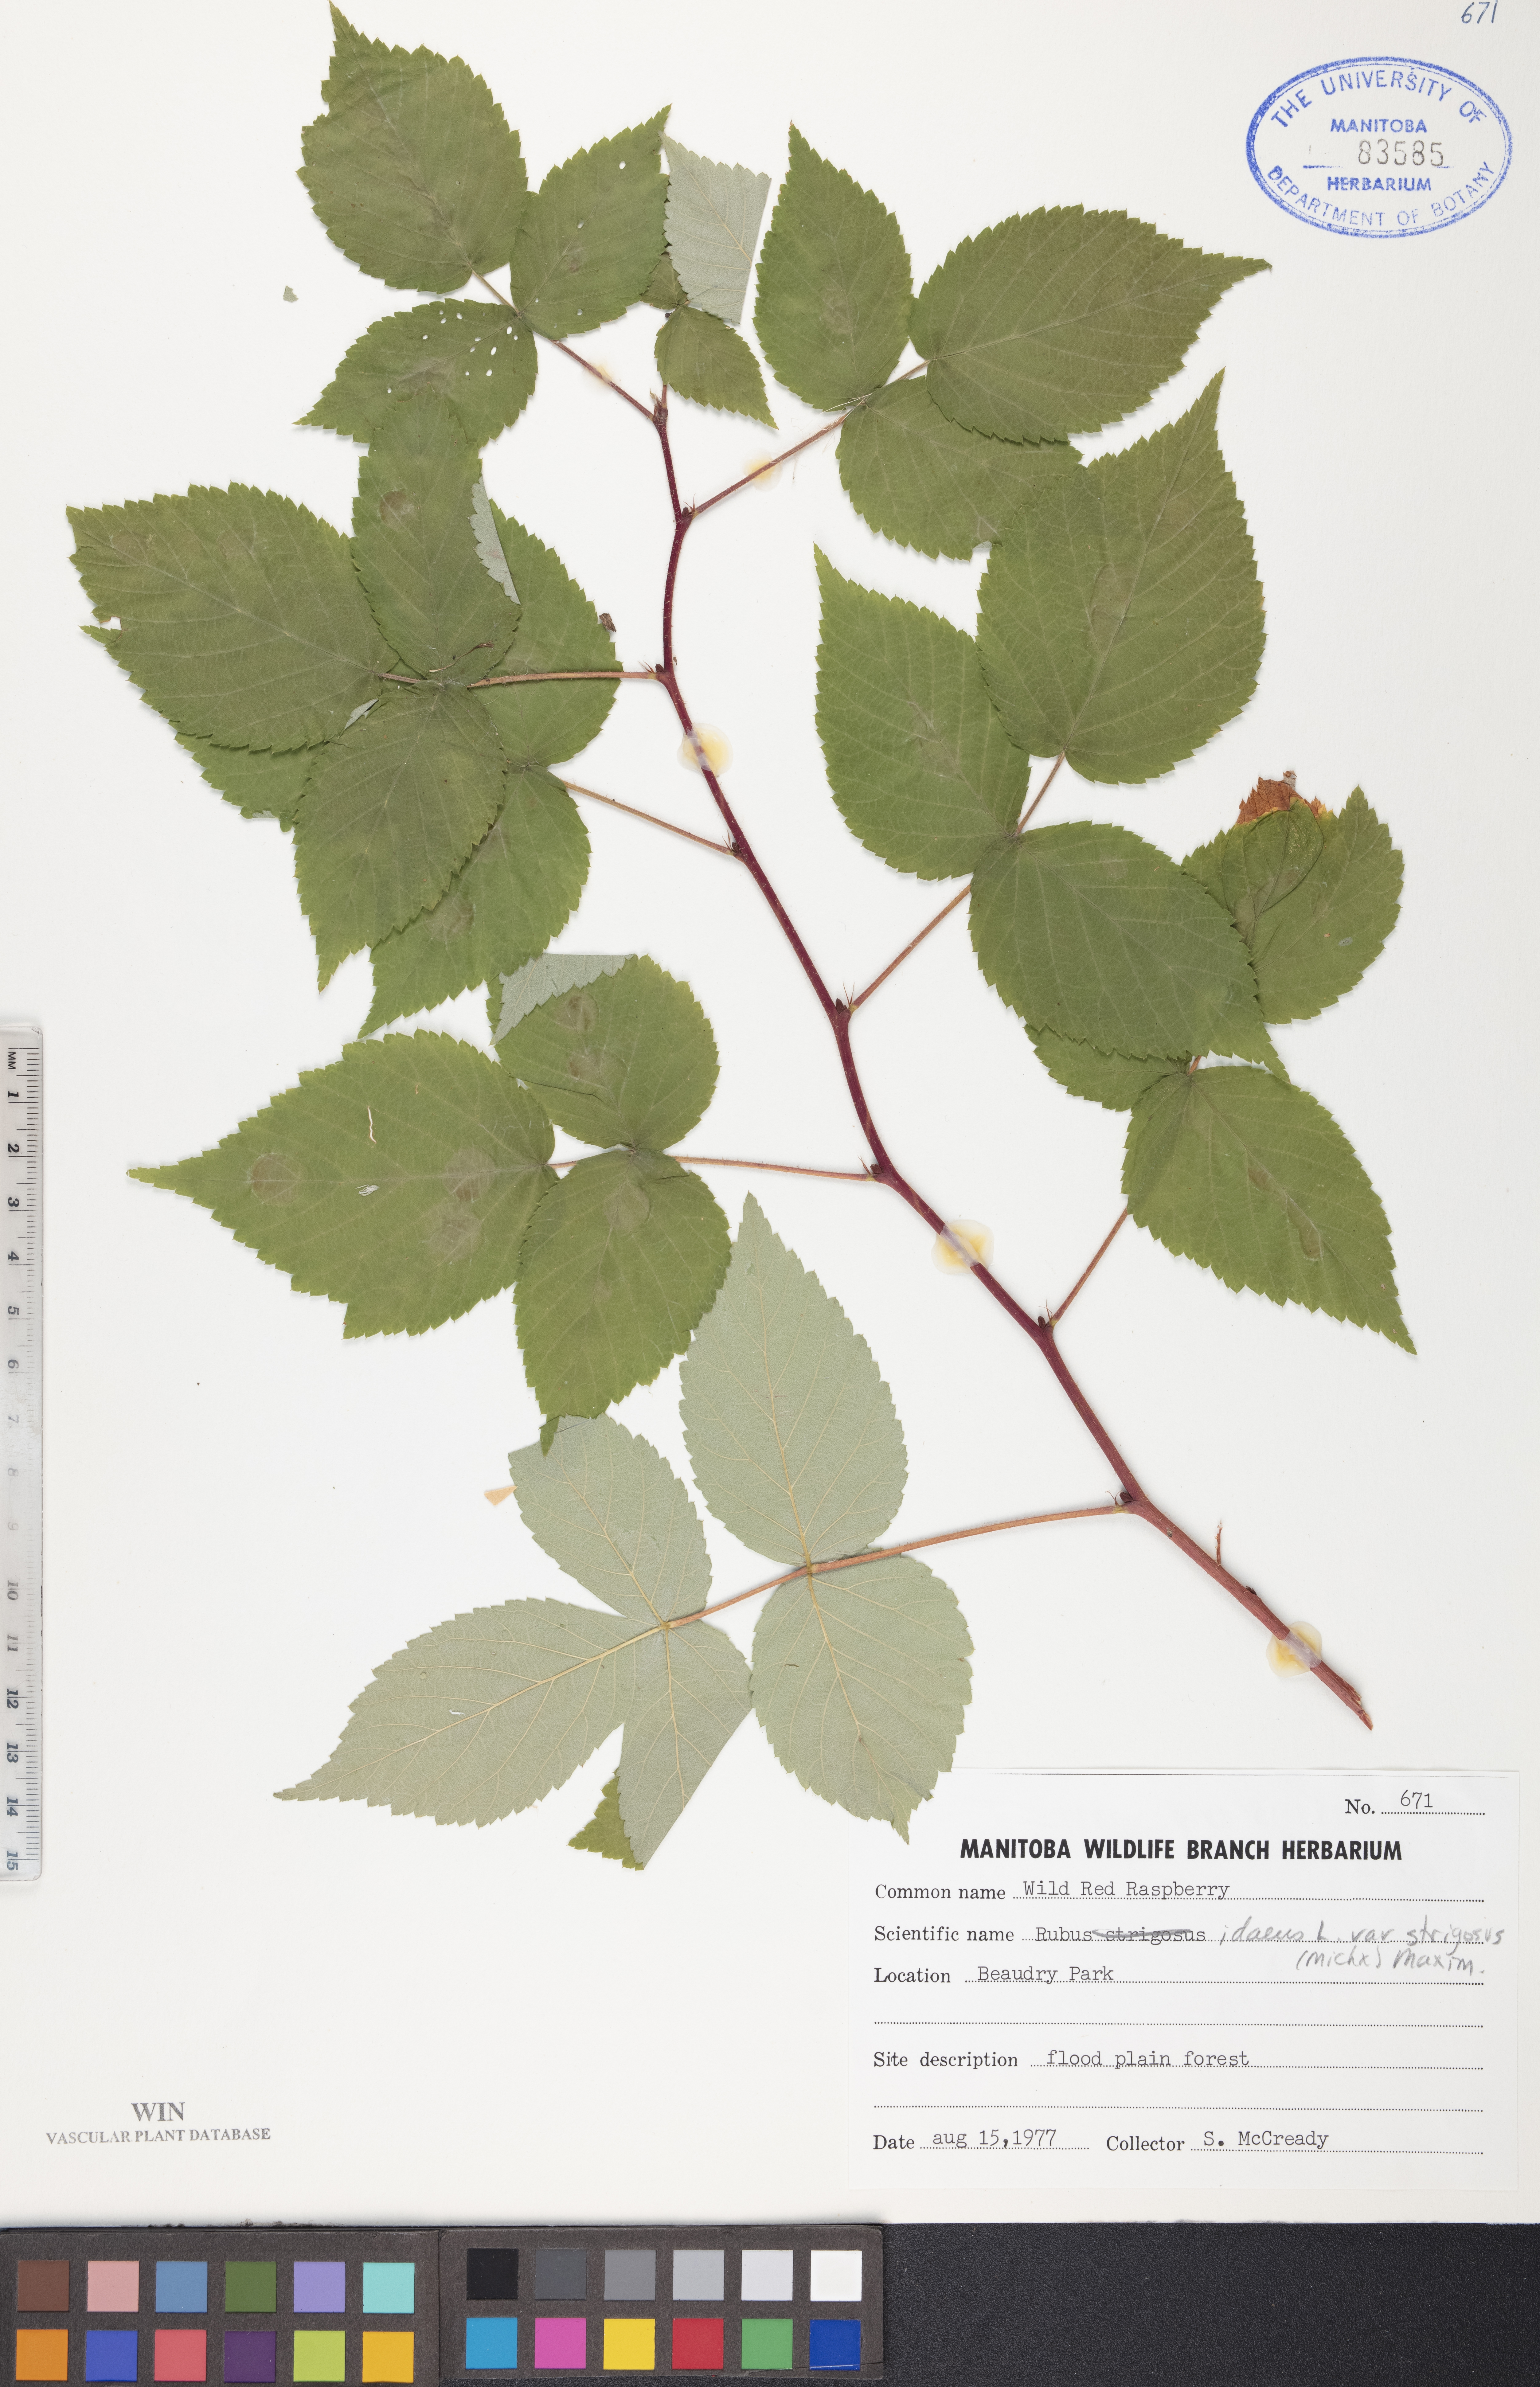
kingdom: Plantae
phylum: Tracheophyta
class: Magnoliopsida
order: Rosales
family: Rosaceae
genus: Rubus
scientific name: Rubus idaeus
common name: Raspberry
